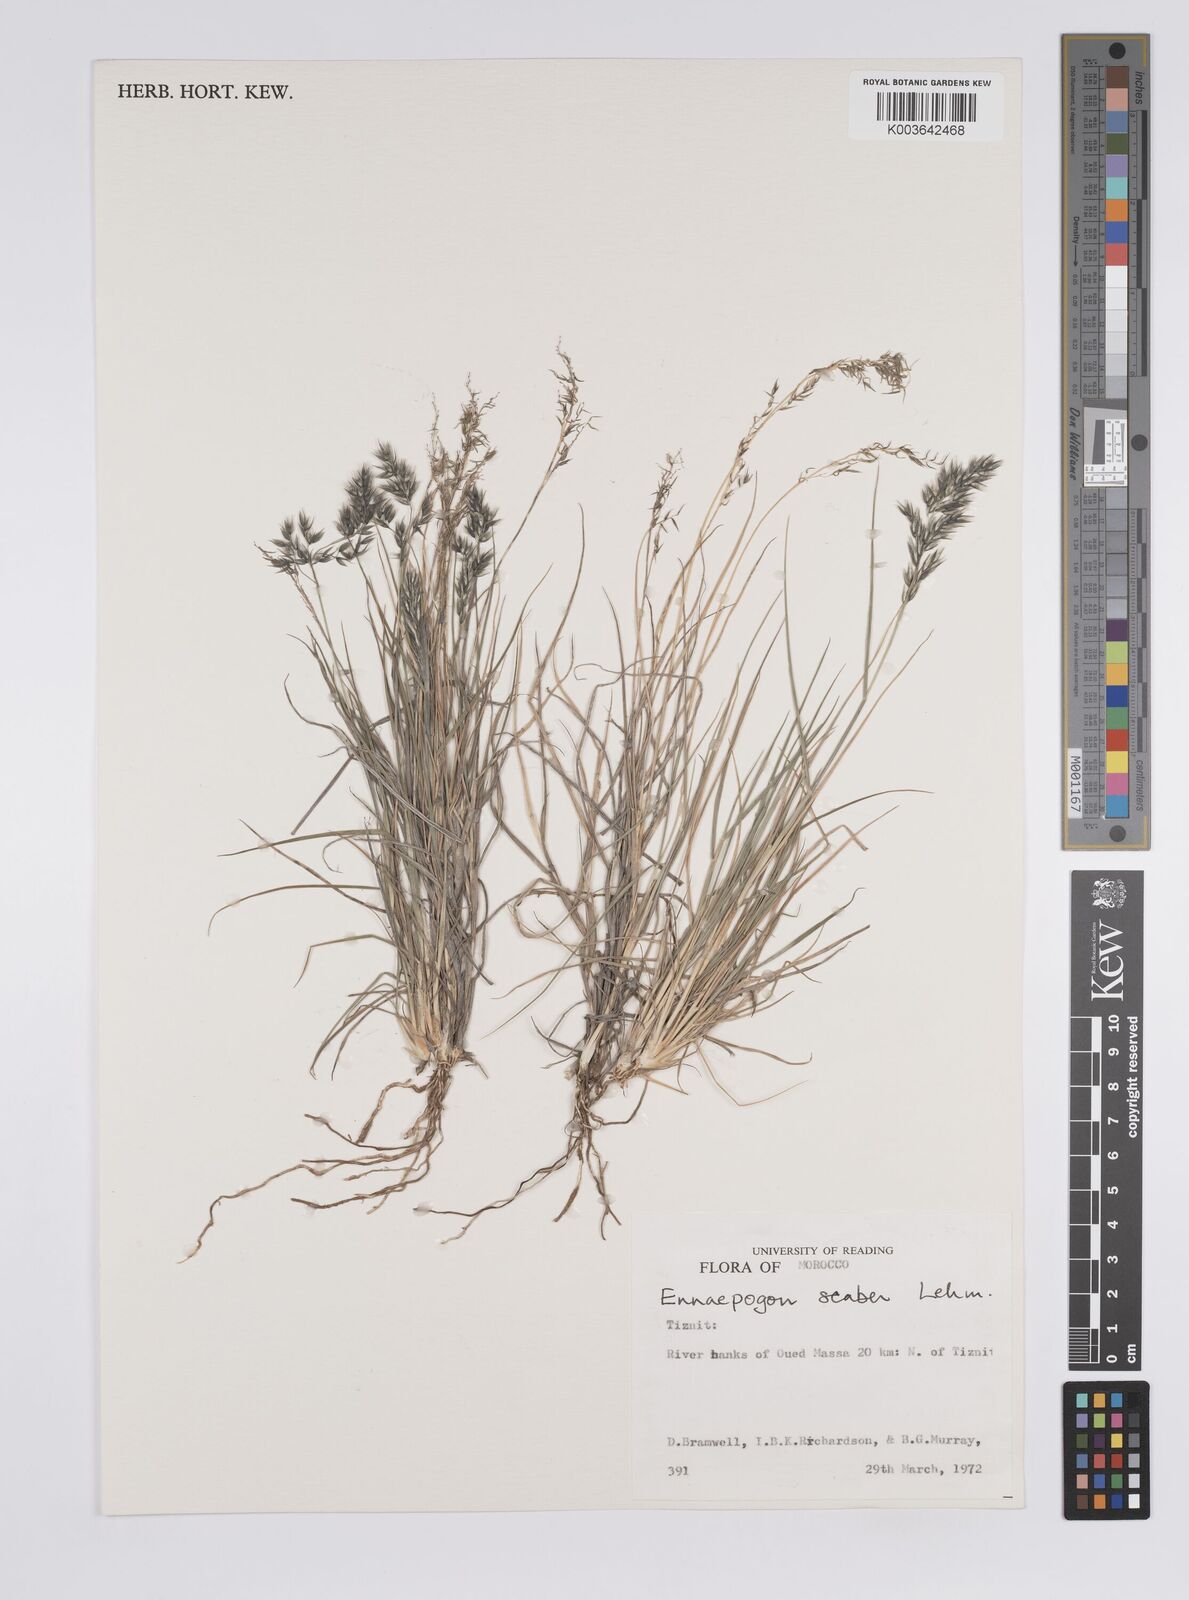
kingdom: Plantae
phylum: Tracheophyta
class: Liliopsida
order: Poales
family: Poaceae
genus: Enneapogon
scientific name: Enneapogon scaber
